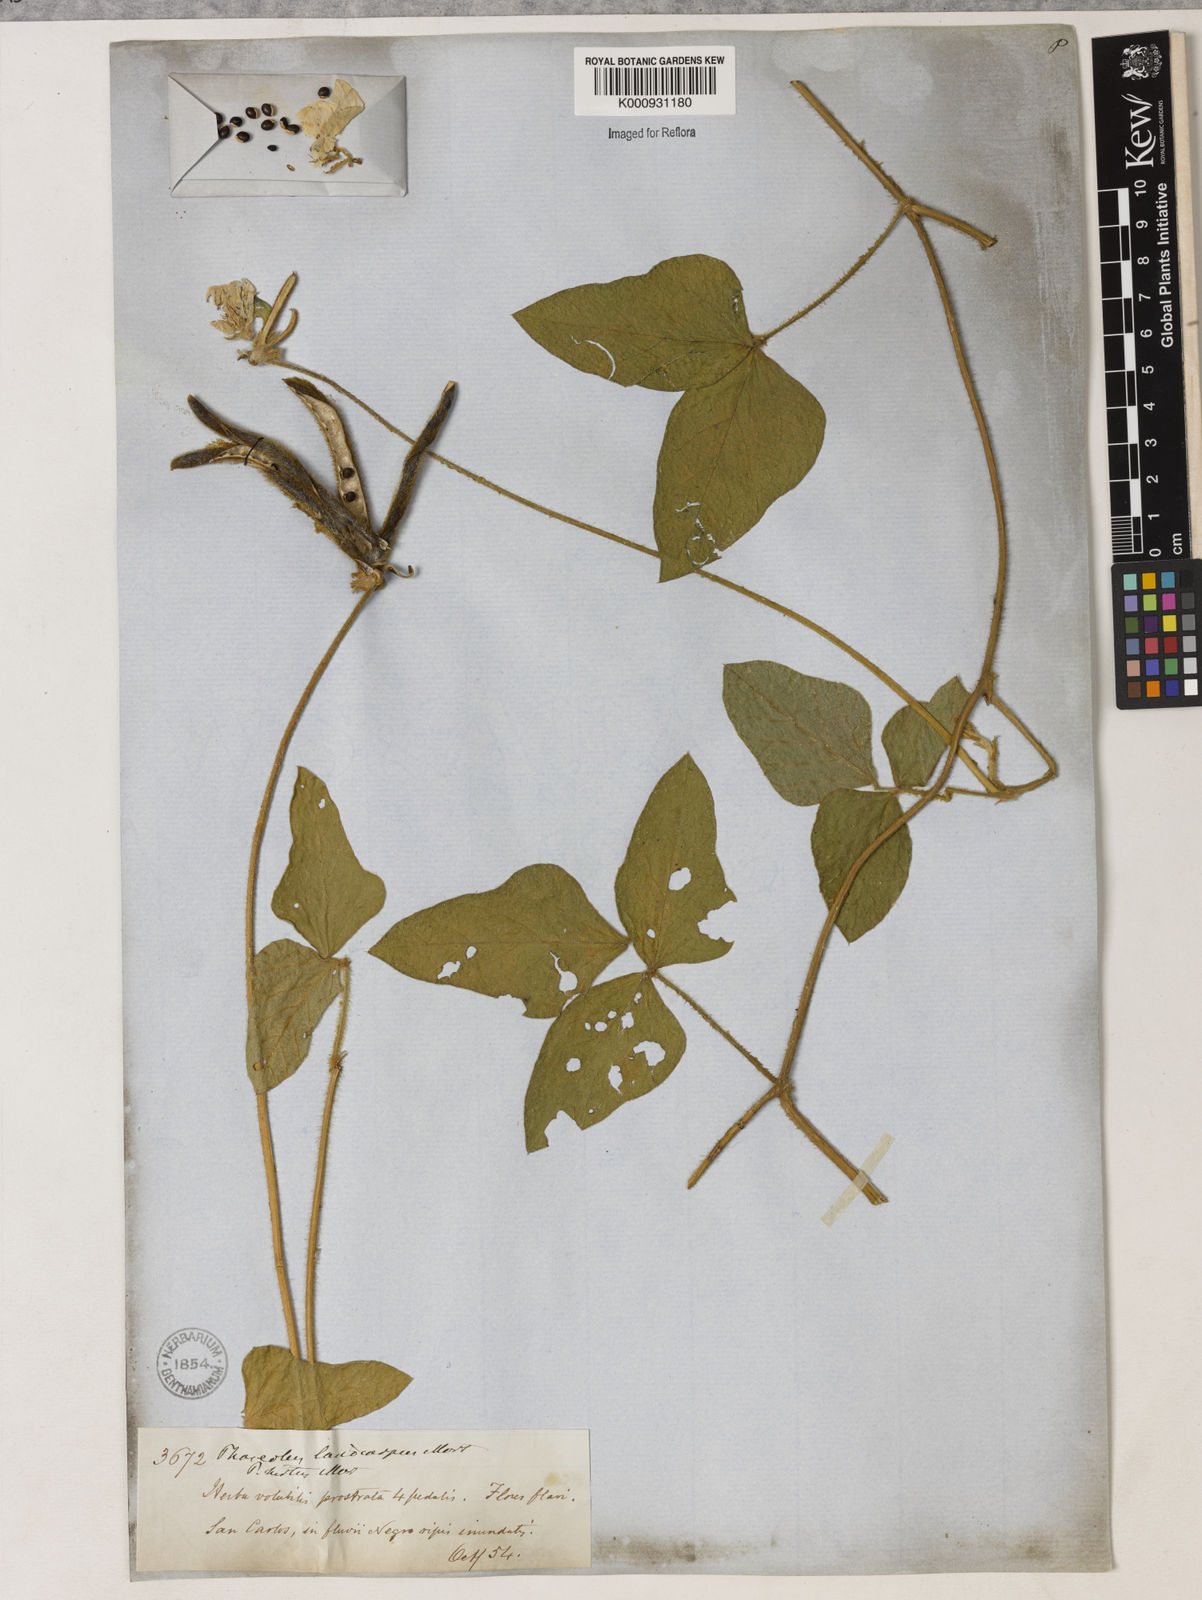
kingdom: Plantae
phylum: Tracheophyta
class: Magnoliopsida
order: Fabales
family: Fabaceae
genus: Vigna
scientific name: Vigna lasiocarpa
